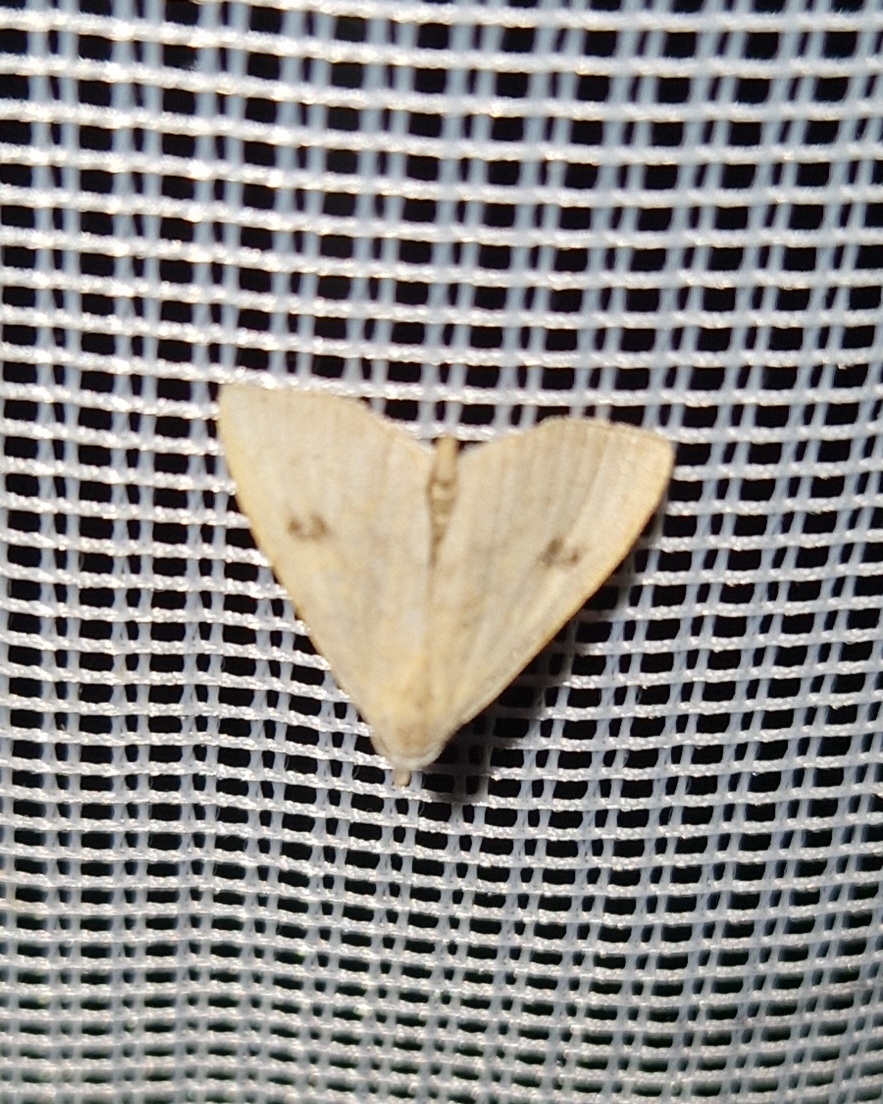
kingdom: Animalia
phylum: Arthropoda
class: Insecta
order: Lepidoptera
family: Erebidae
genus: Rivula
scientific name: Rivula sericealis
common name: Lille å-ugle
